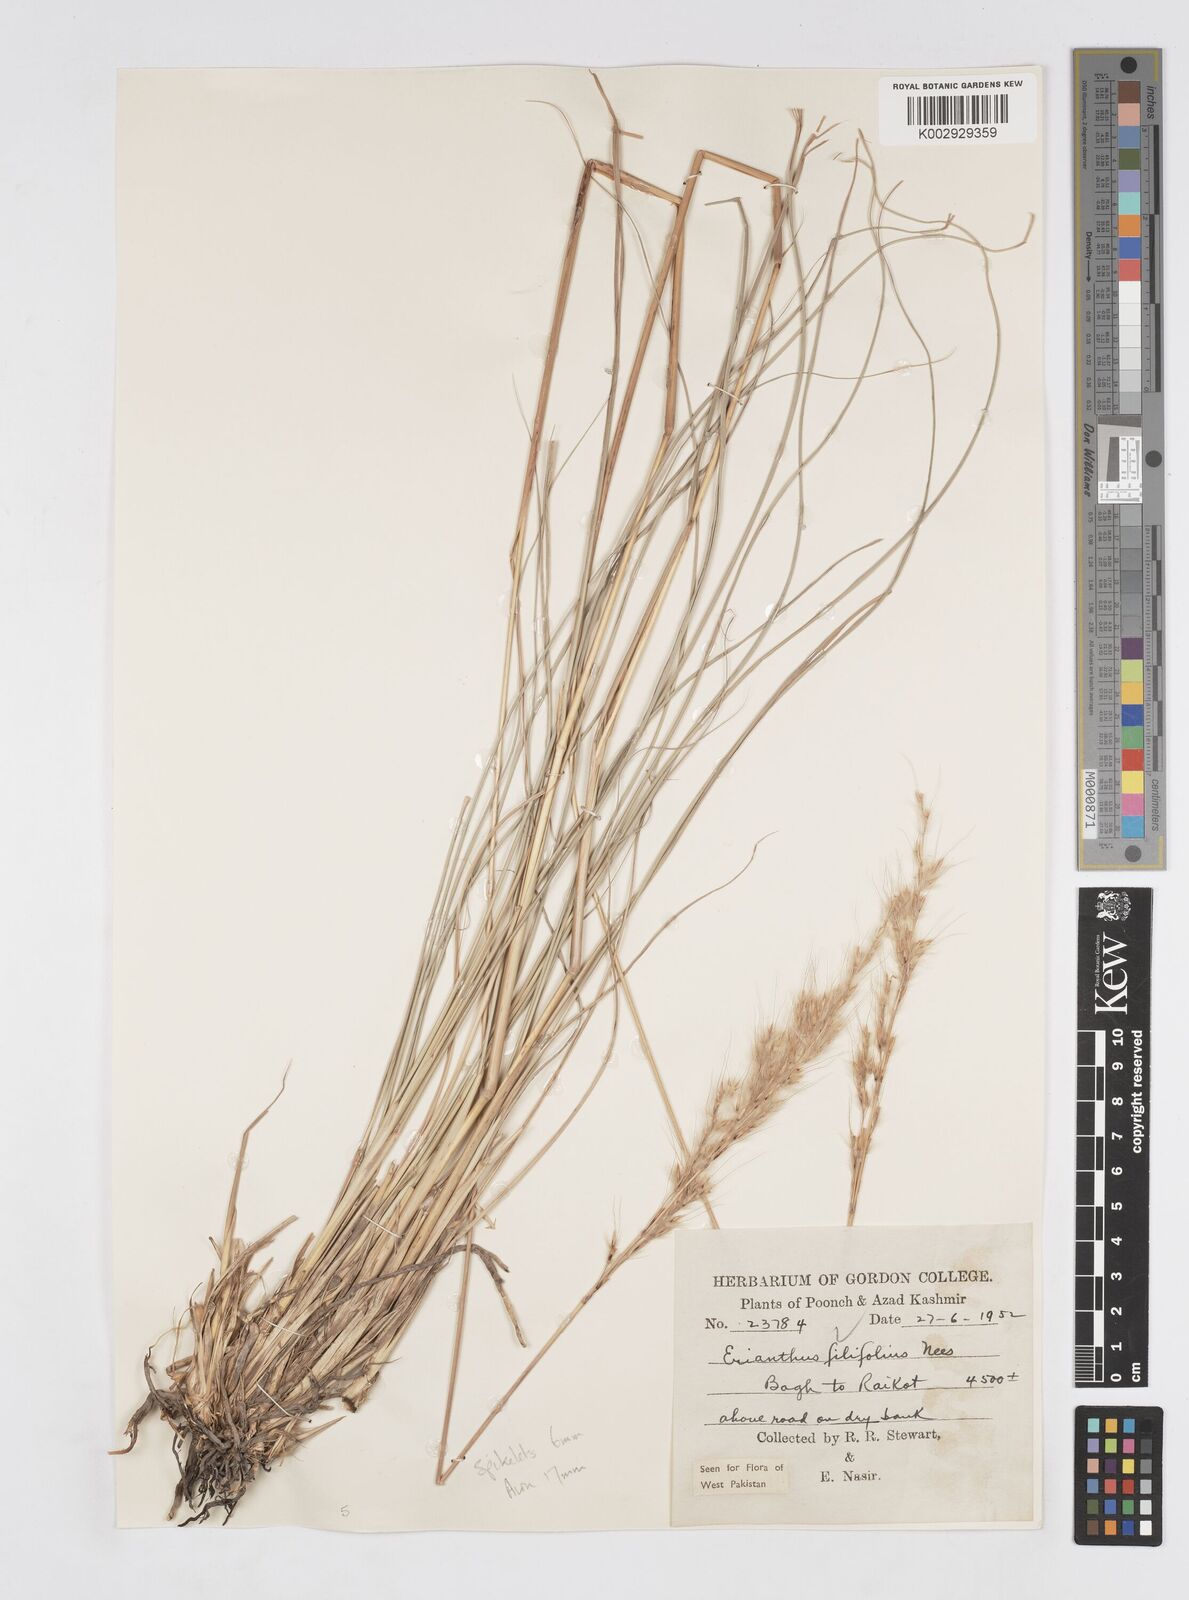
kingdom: Plantae
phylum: Tracheophyta
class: Liliopsida
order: Poales
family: Poaceae
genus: Saccharum
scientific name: Saccharum filifolium
